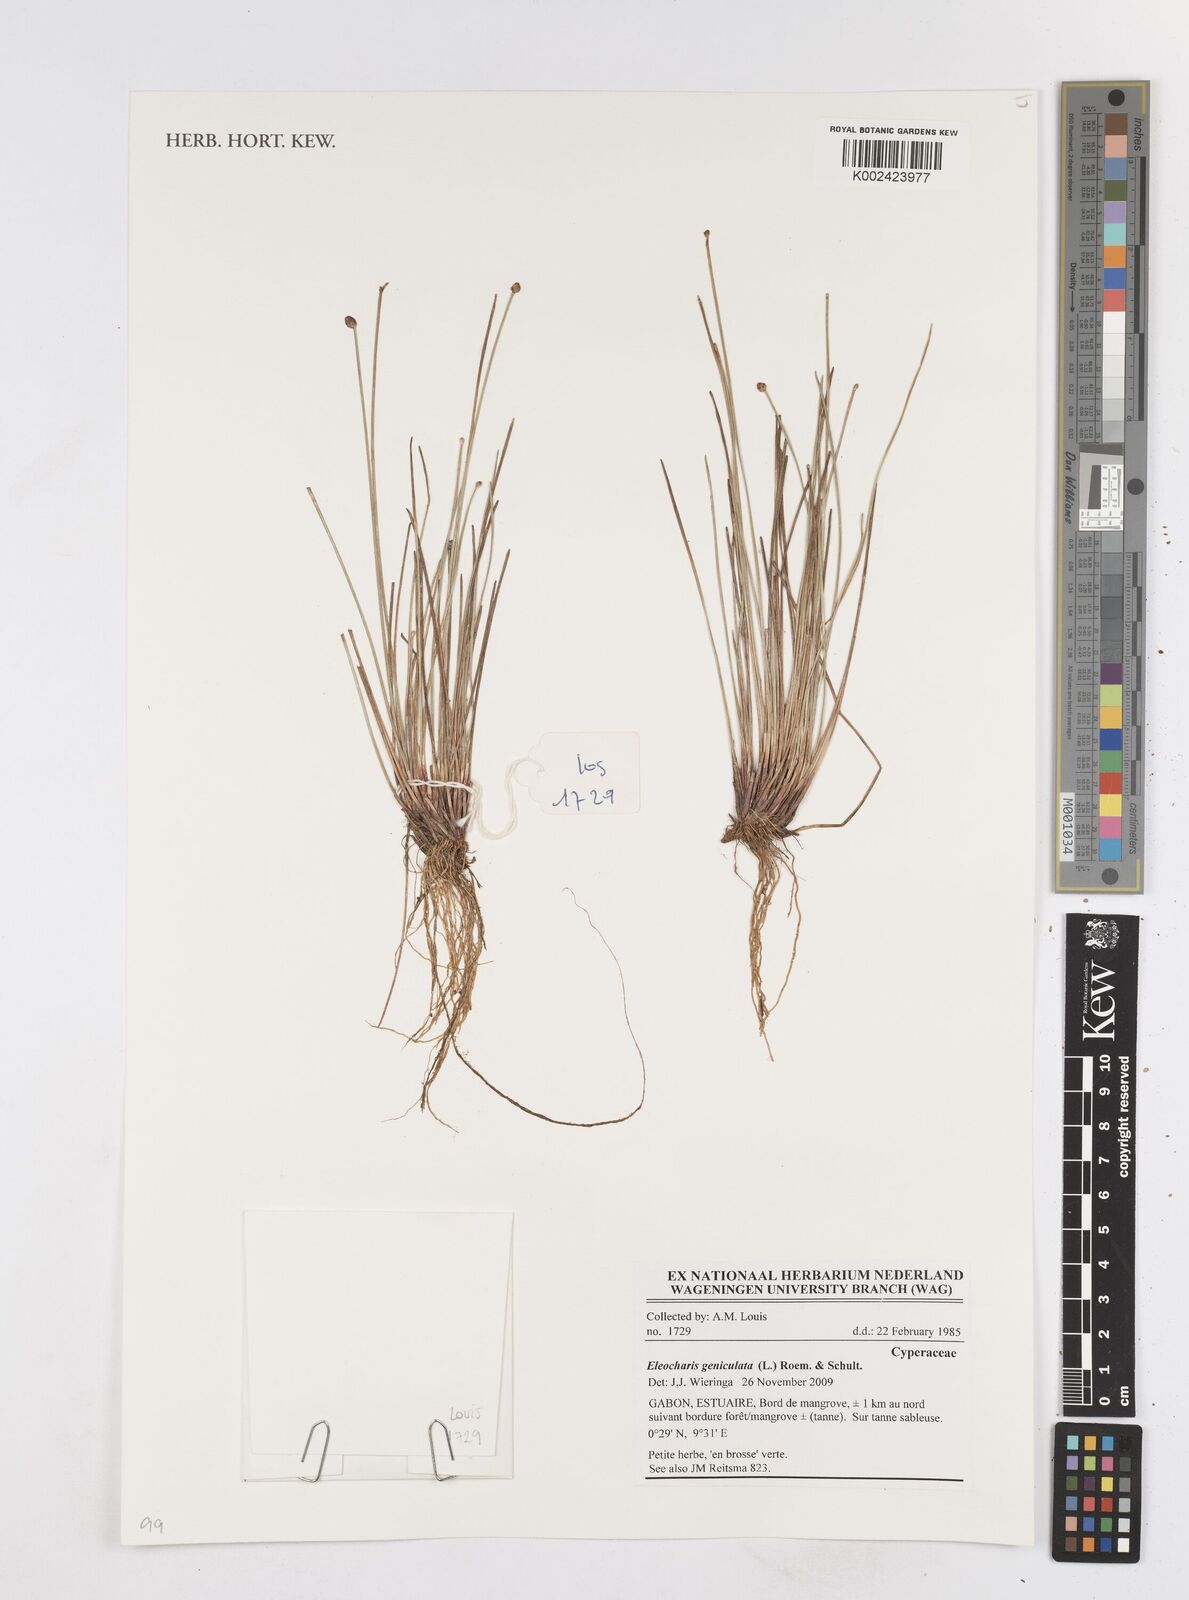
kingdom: Plantae
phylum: Tracheophyta
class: Liliopsida
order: Poales
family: Cyperaceae
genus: Eleocharis
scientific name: Eleocharis geniculata
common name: Canada spikesedge
